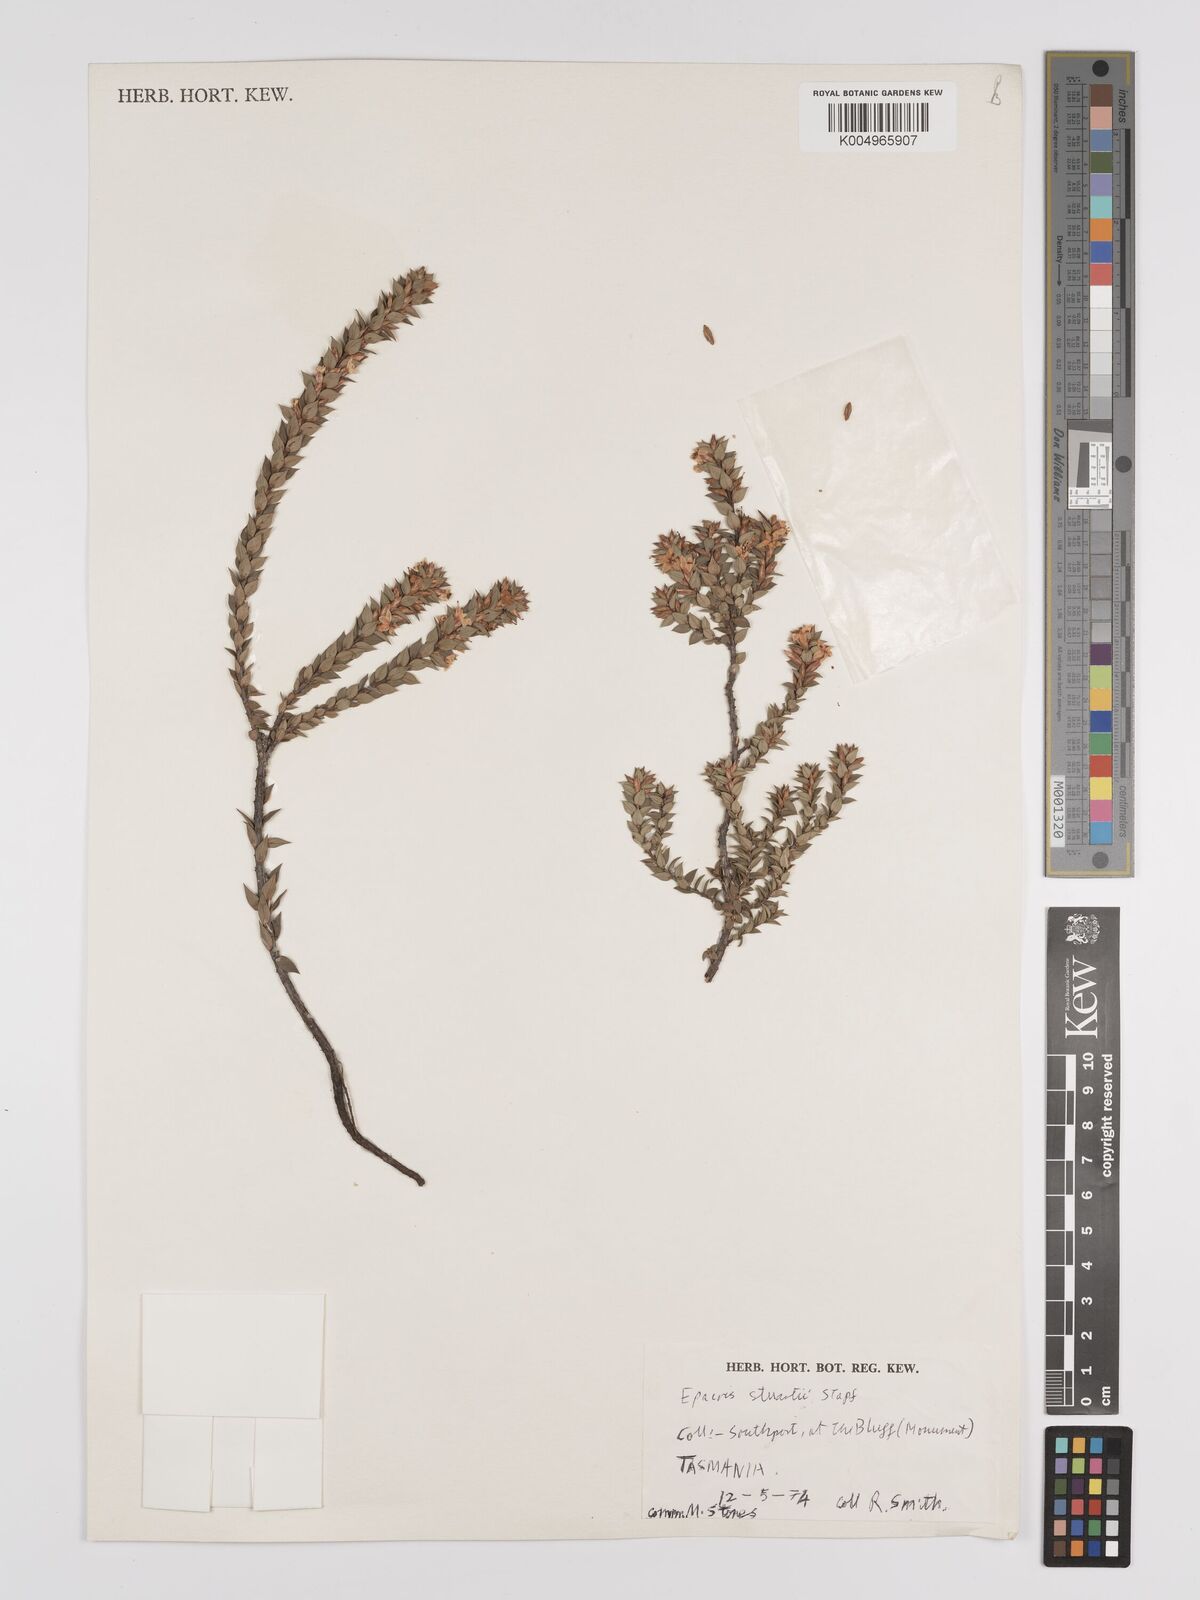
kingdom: Plantae
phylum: Tracheophyta
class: Magnoliopsida
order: Ericales
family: Ericaceae
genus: Epacris
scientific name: Epacris stuartii
